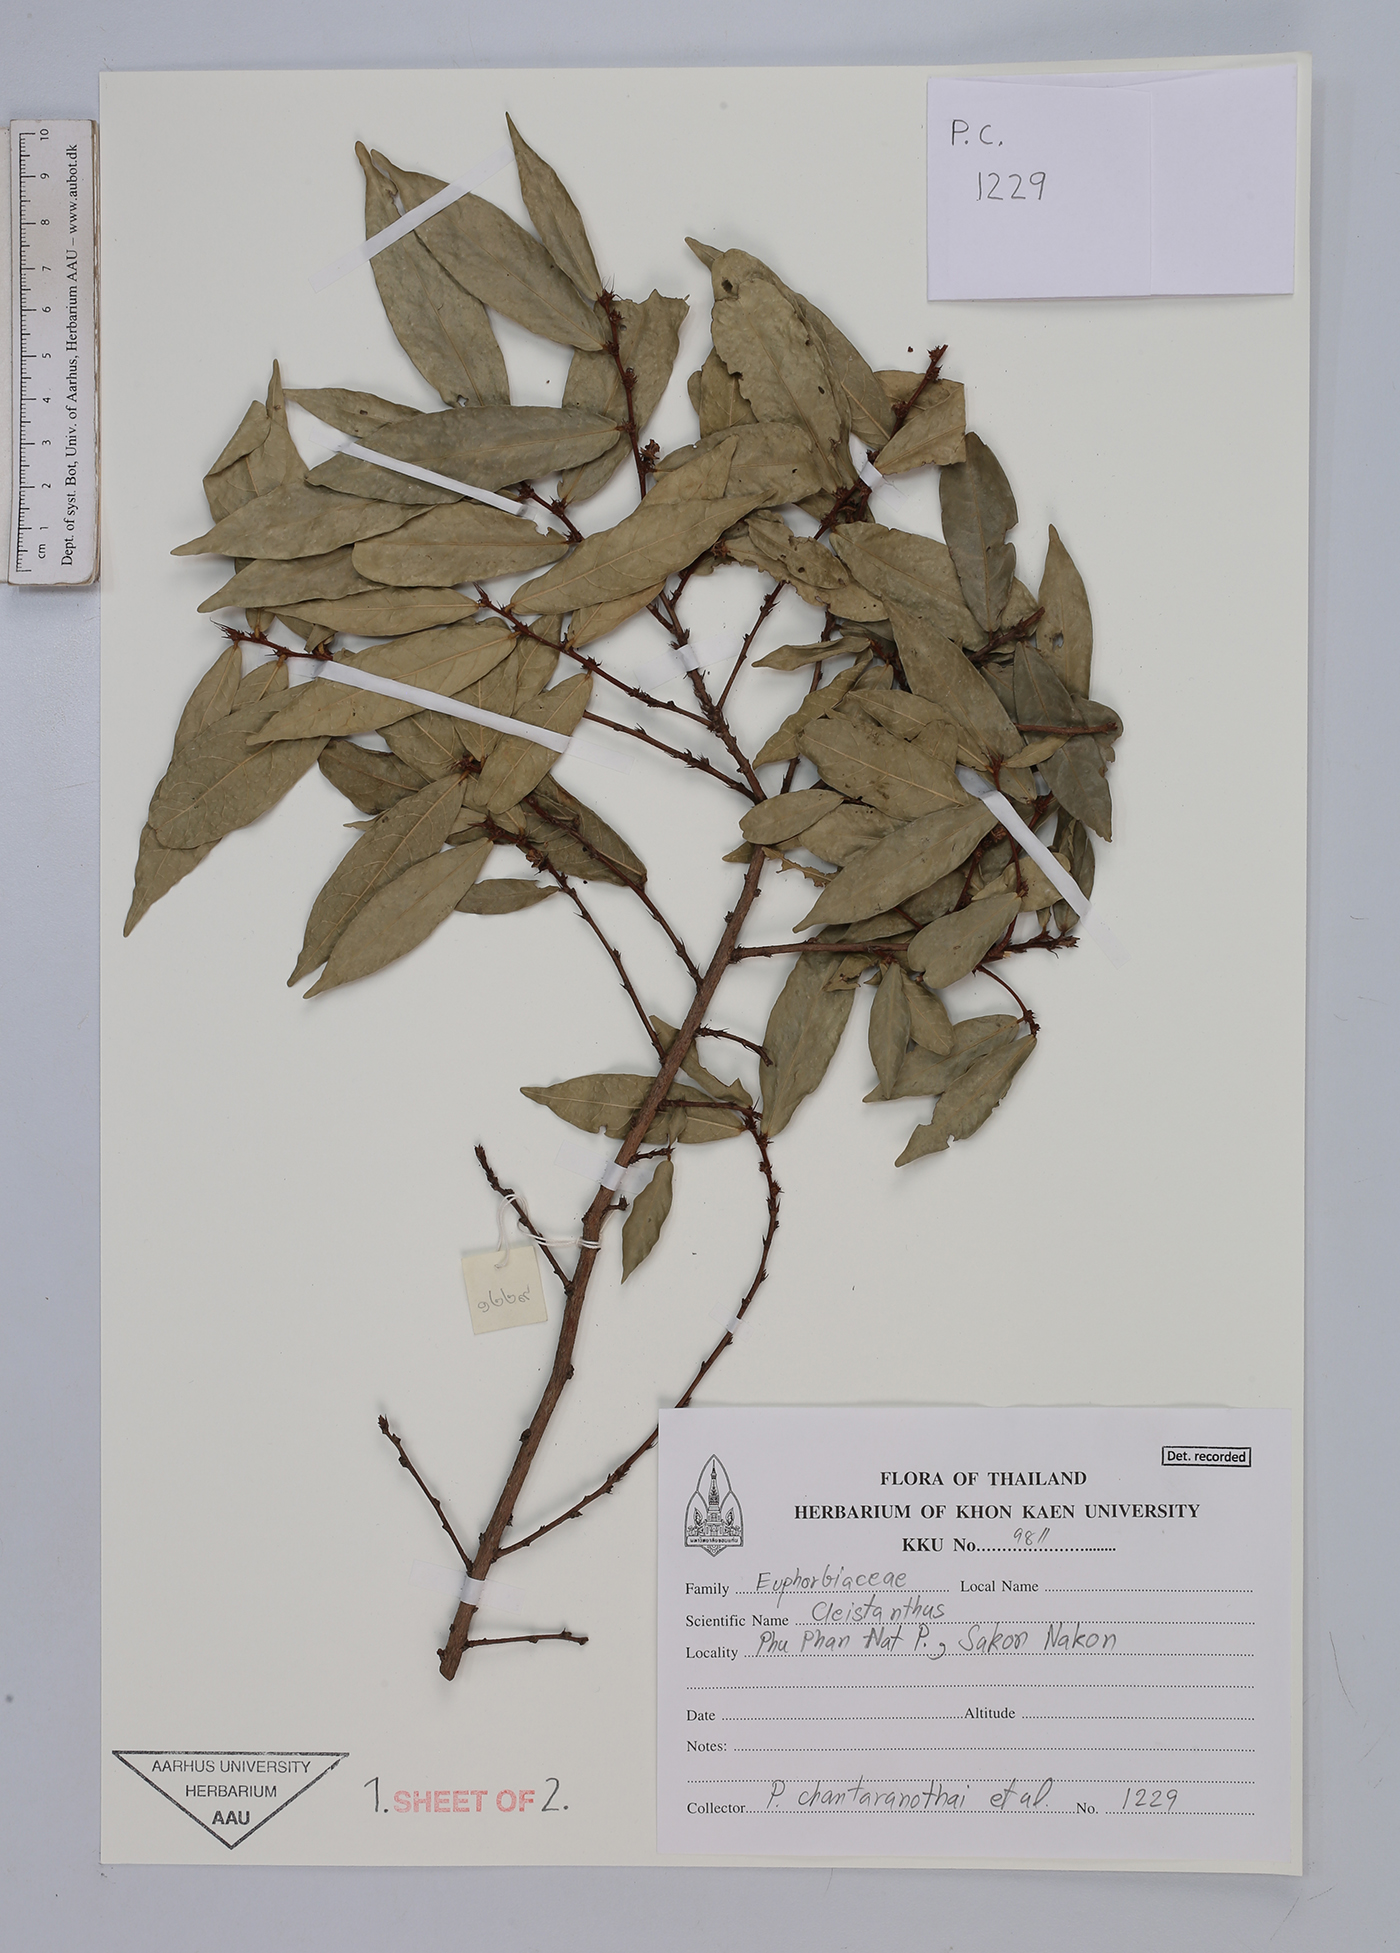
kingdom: Plantae
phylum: Tracheophyta
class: Magnoliopsida
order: Malpighiales
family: Euphorbiaceae
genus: Cleistanthus
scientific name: Cleistanthus
